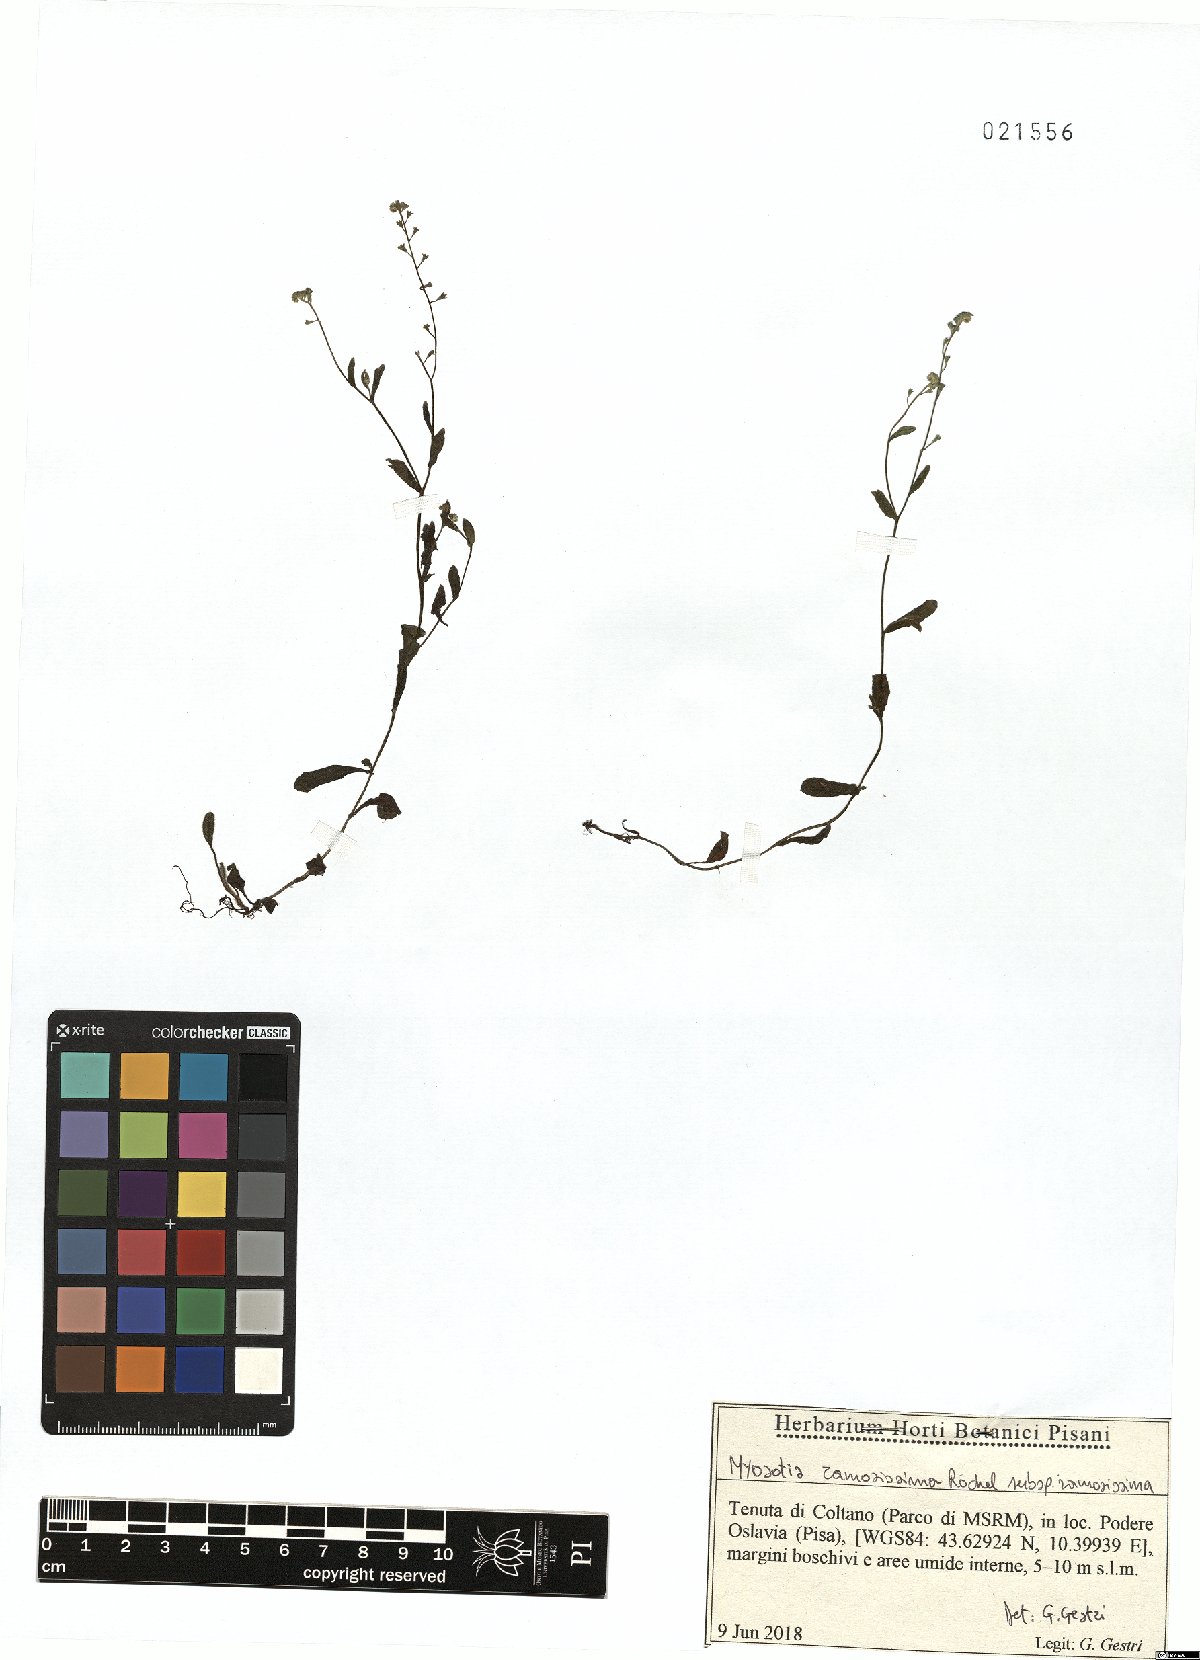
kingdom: Plantae
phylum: Tracheophyta
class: Magnoliopsida
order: Boraginales
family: Boraginaceae
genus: Myosotis
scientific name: Myosotis ramosissima
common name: Early forget-me-not
